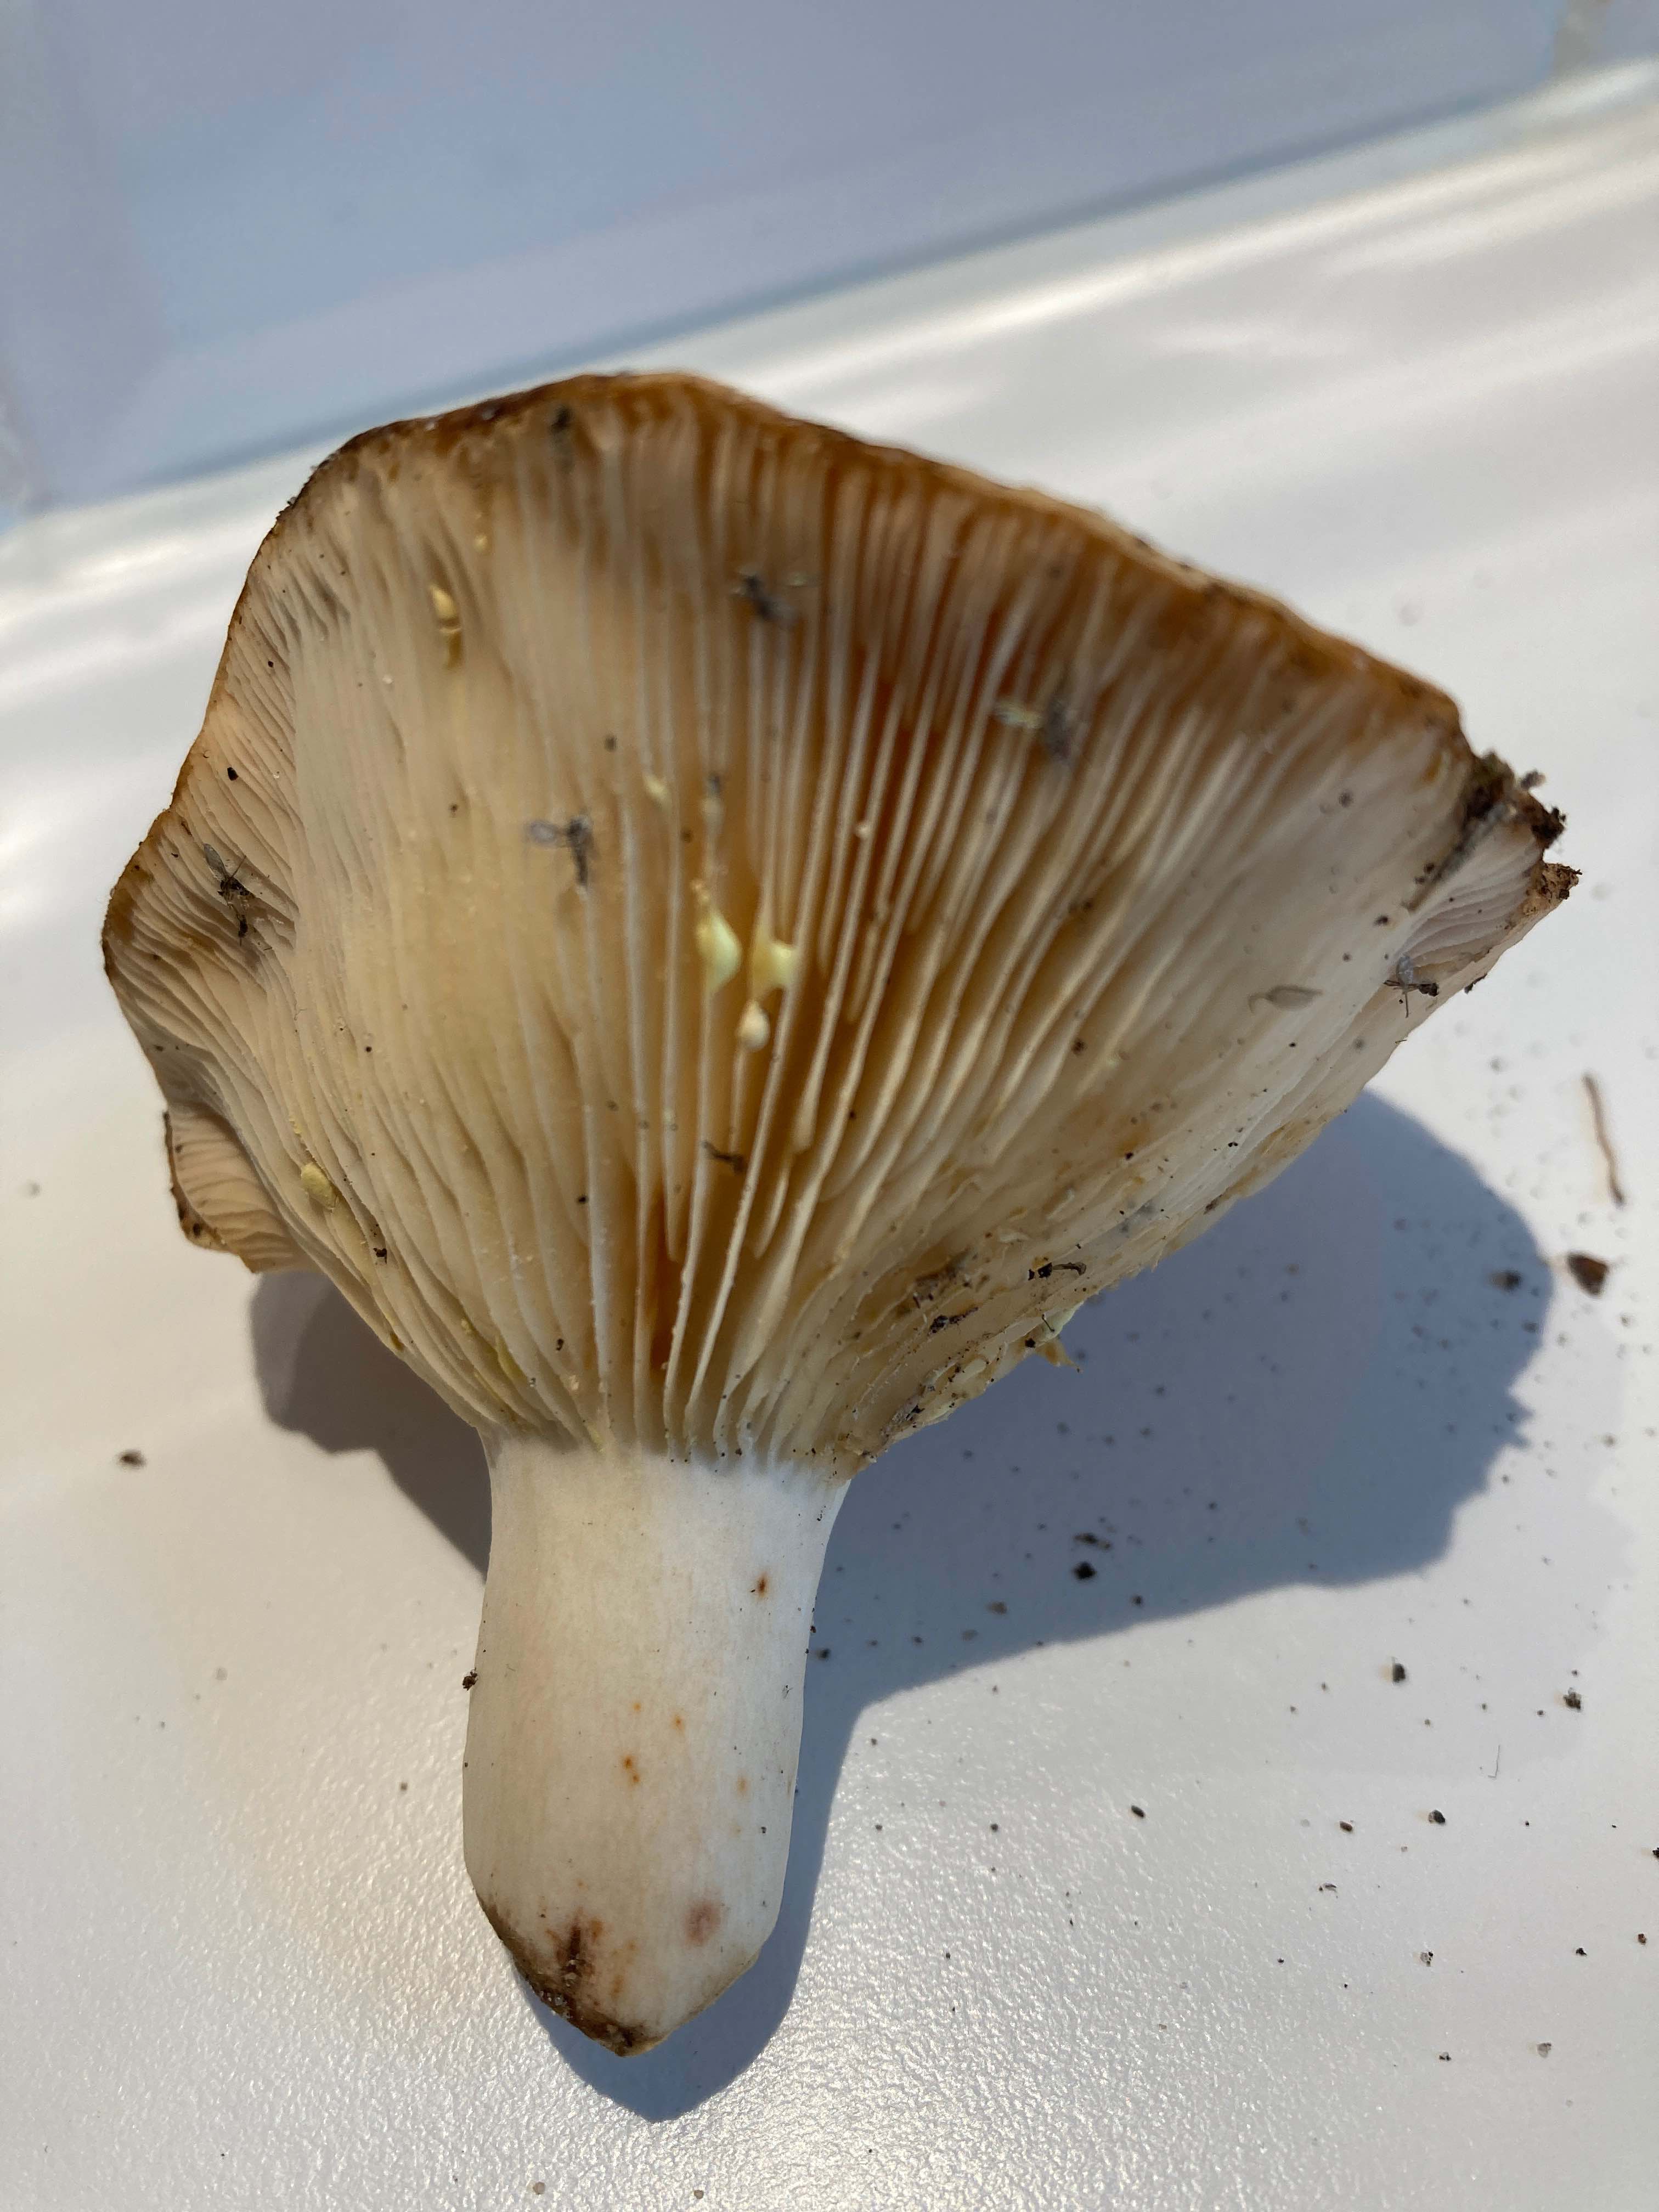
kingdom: Fungi
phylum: Basidiomycota
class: Agaricomycetes
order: Russulales
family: Russulaceae
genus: Lactarius
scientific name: Lactarius chrysorrheus
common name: svovlmælket mælkehat
